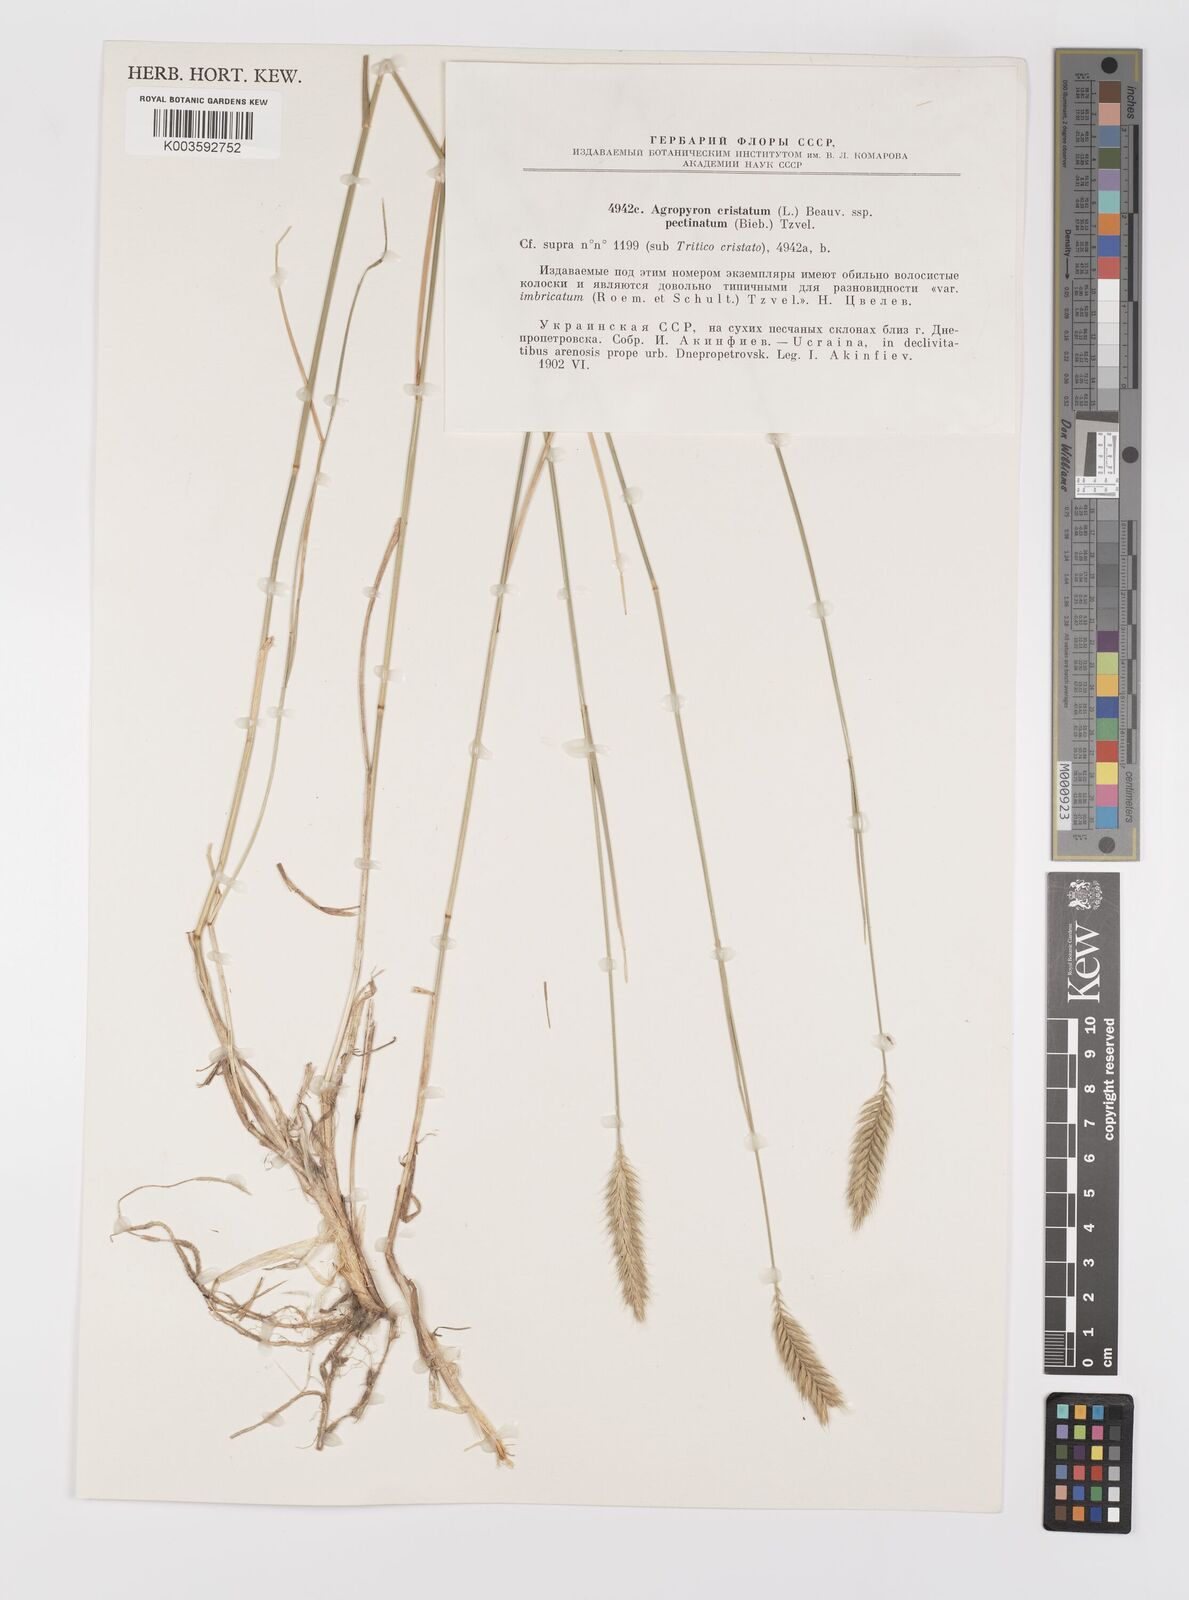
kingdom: Plantae
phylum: Tracheophyta
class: Liliopsida
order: Poales
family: Poaceae
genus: Agropyron
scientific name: Agropyron cristatum
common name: Crested wheatgrass
